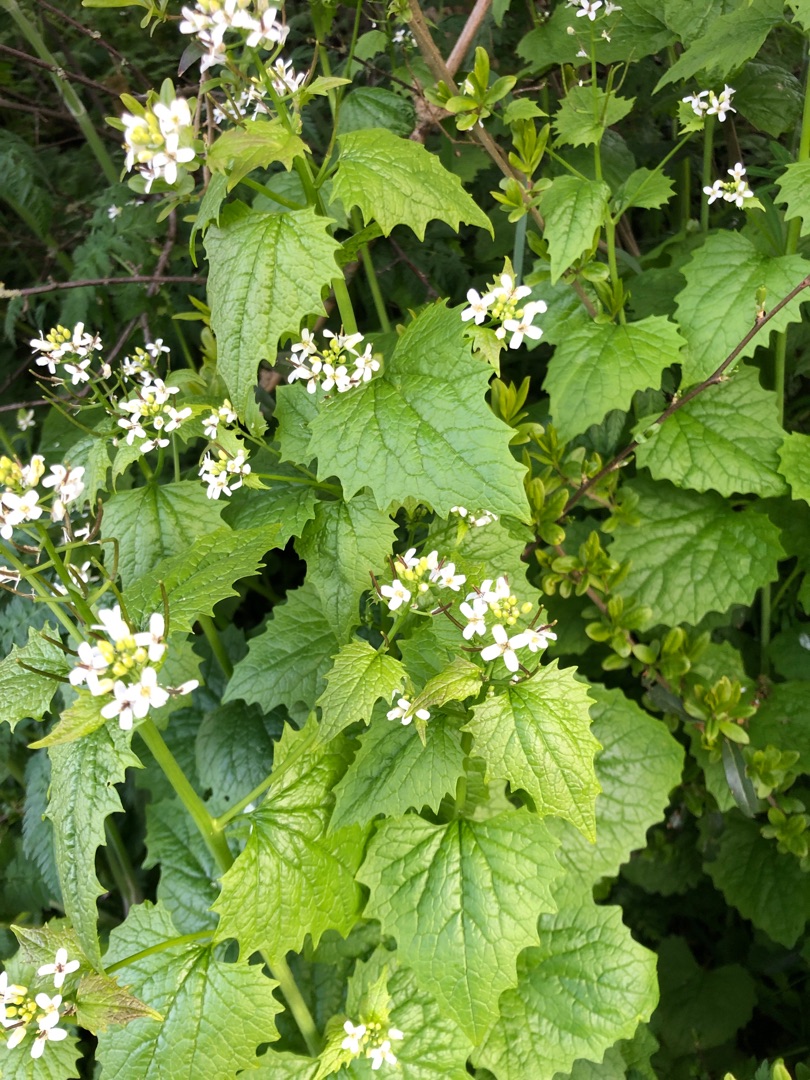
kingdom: Plantae
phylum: Tracheophyta
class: Magnoliopsida
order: Brassicales
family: Brassicaceae
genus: Alliaria
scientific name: Alliaria petiolata
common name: Løgkarse
